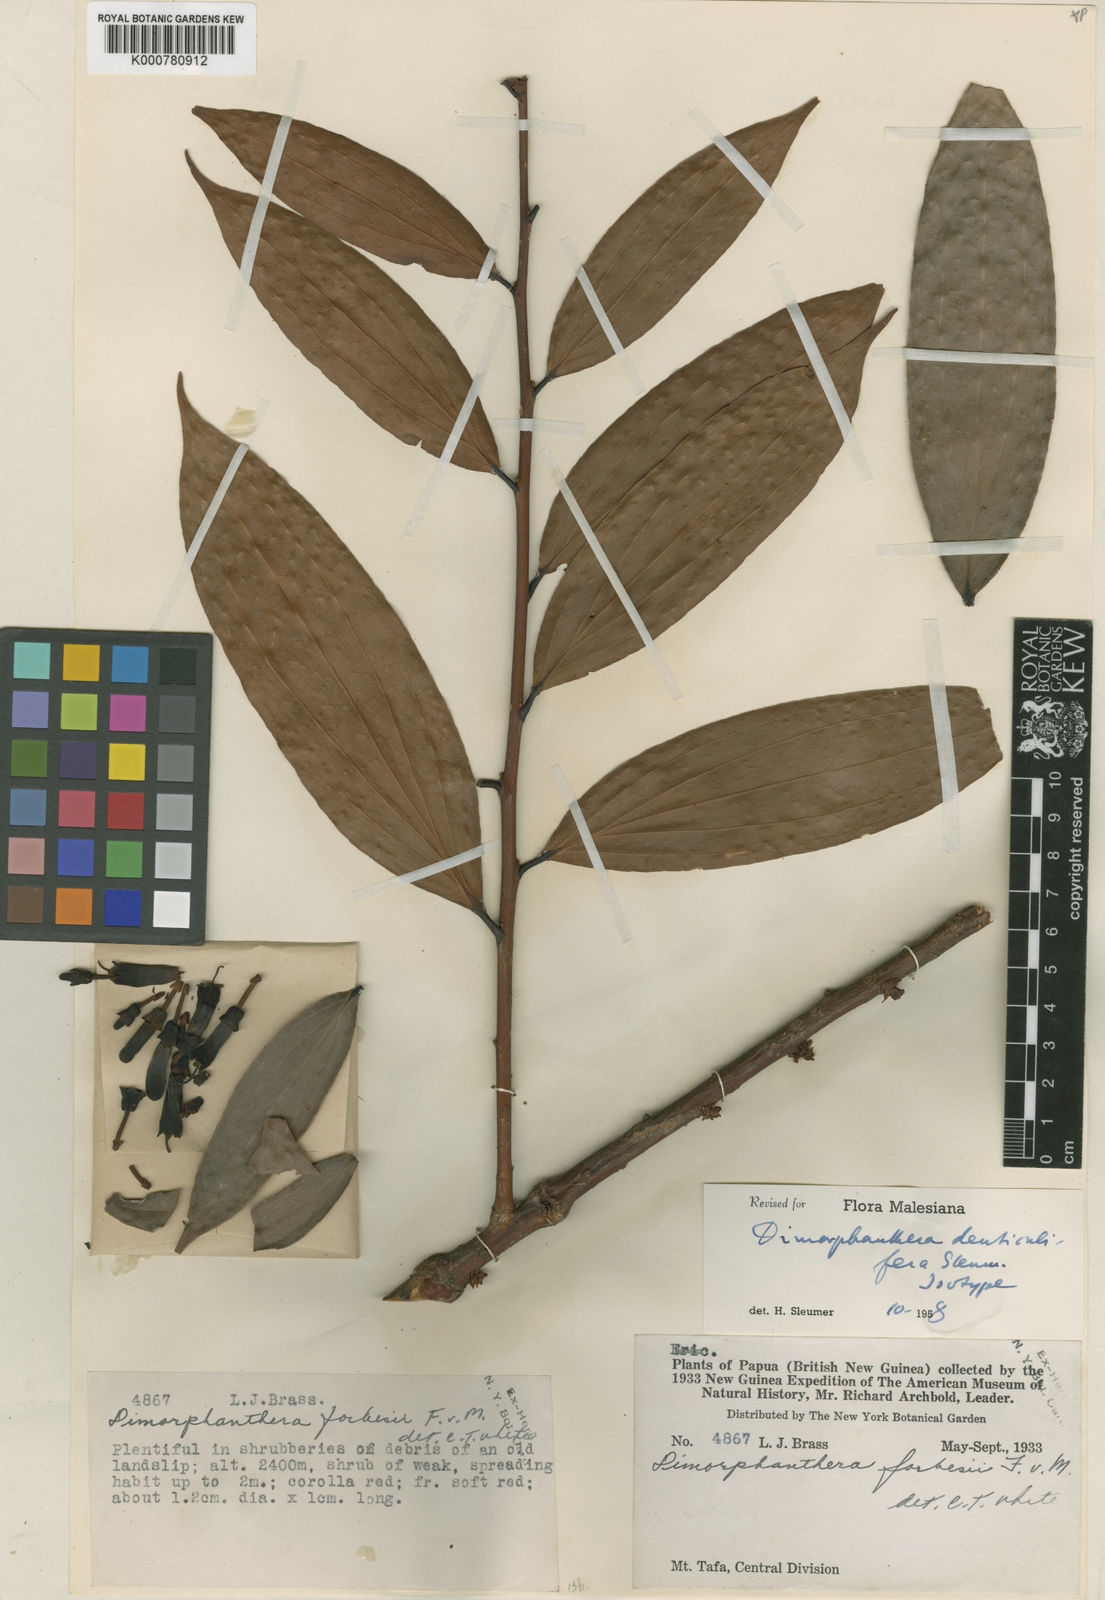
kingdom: Plantae
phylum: Tracheophyta
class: Magnoliopsida
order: Ericales
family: Ericaceae
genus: Dimorphanthera
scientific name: Dimorphanthera denticulifera
